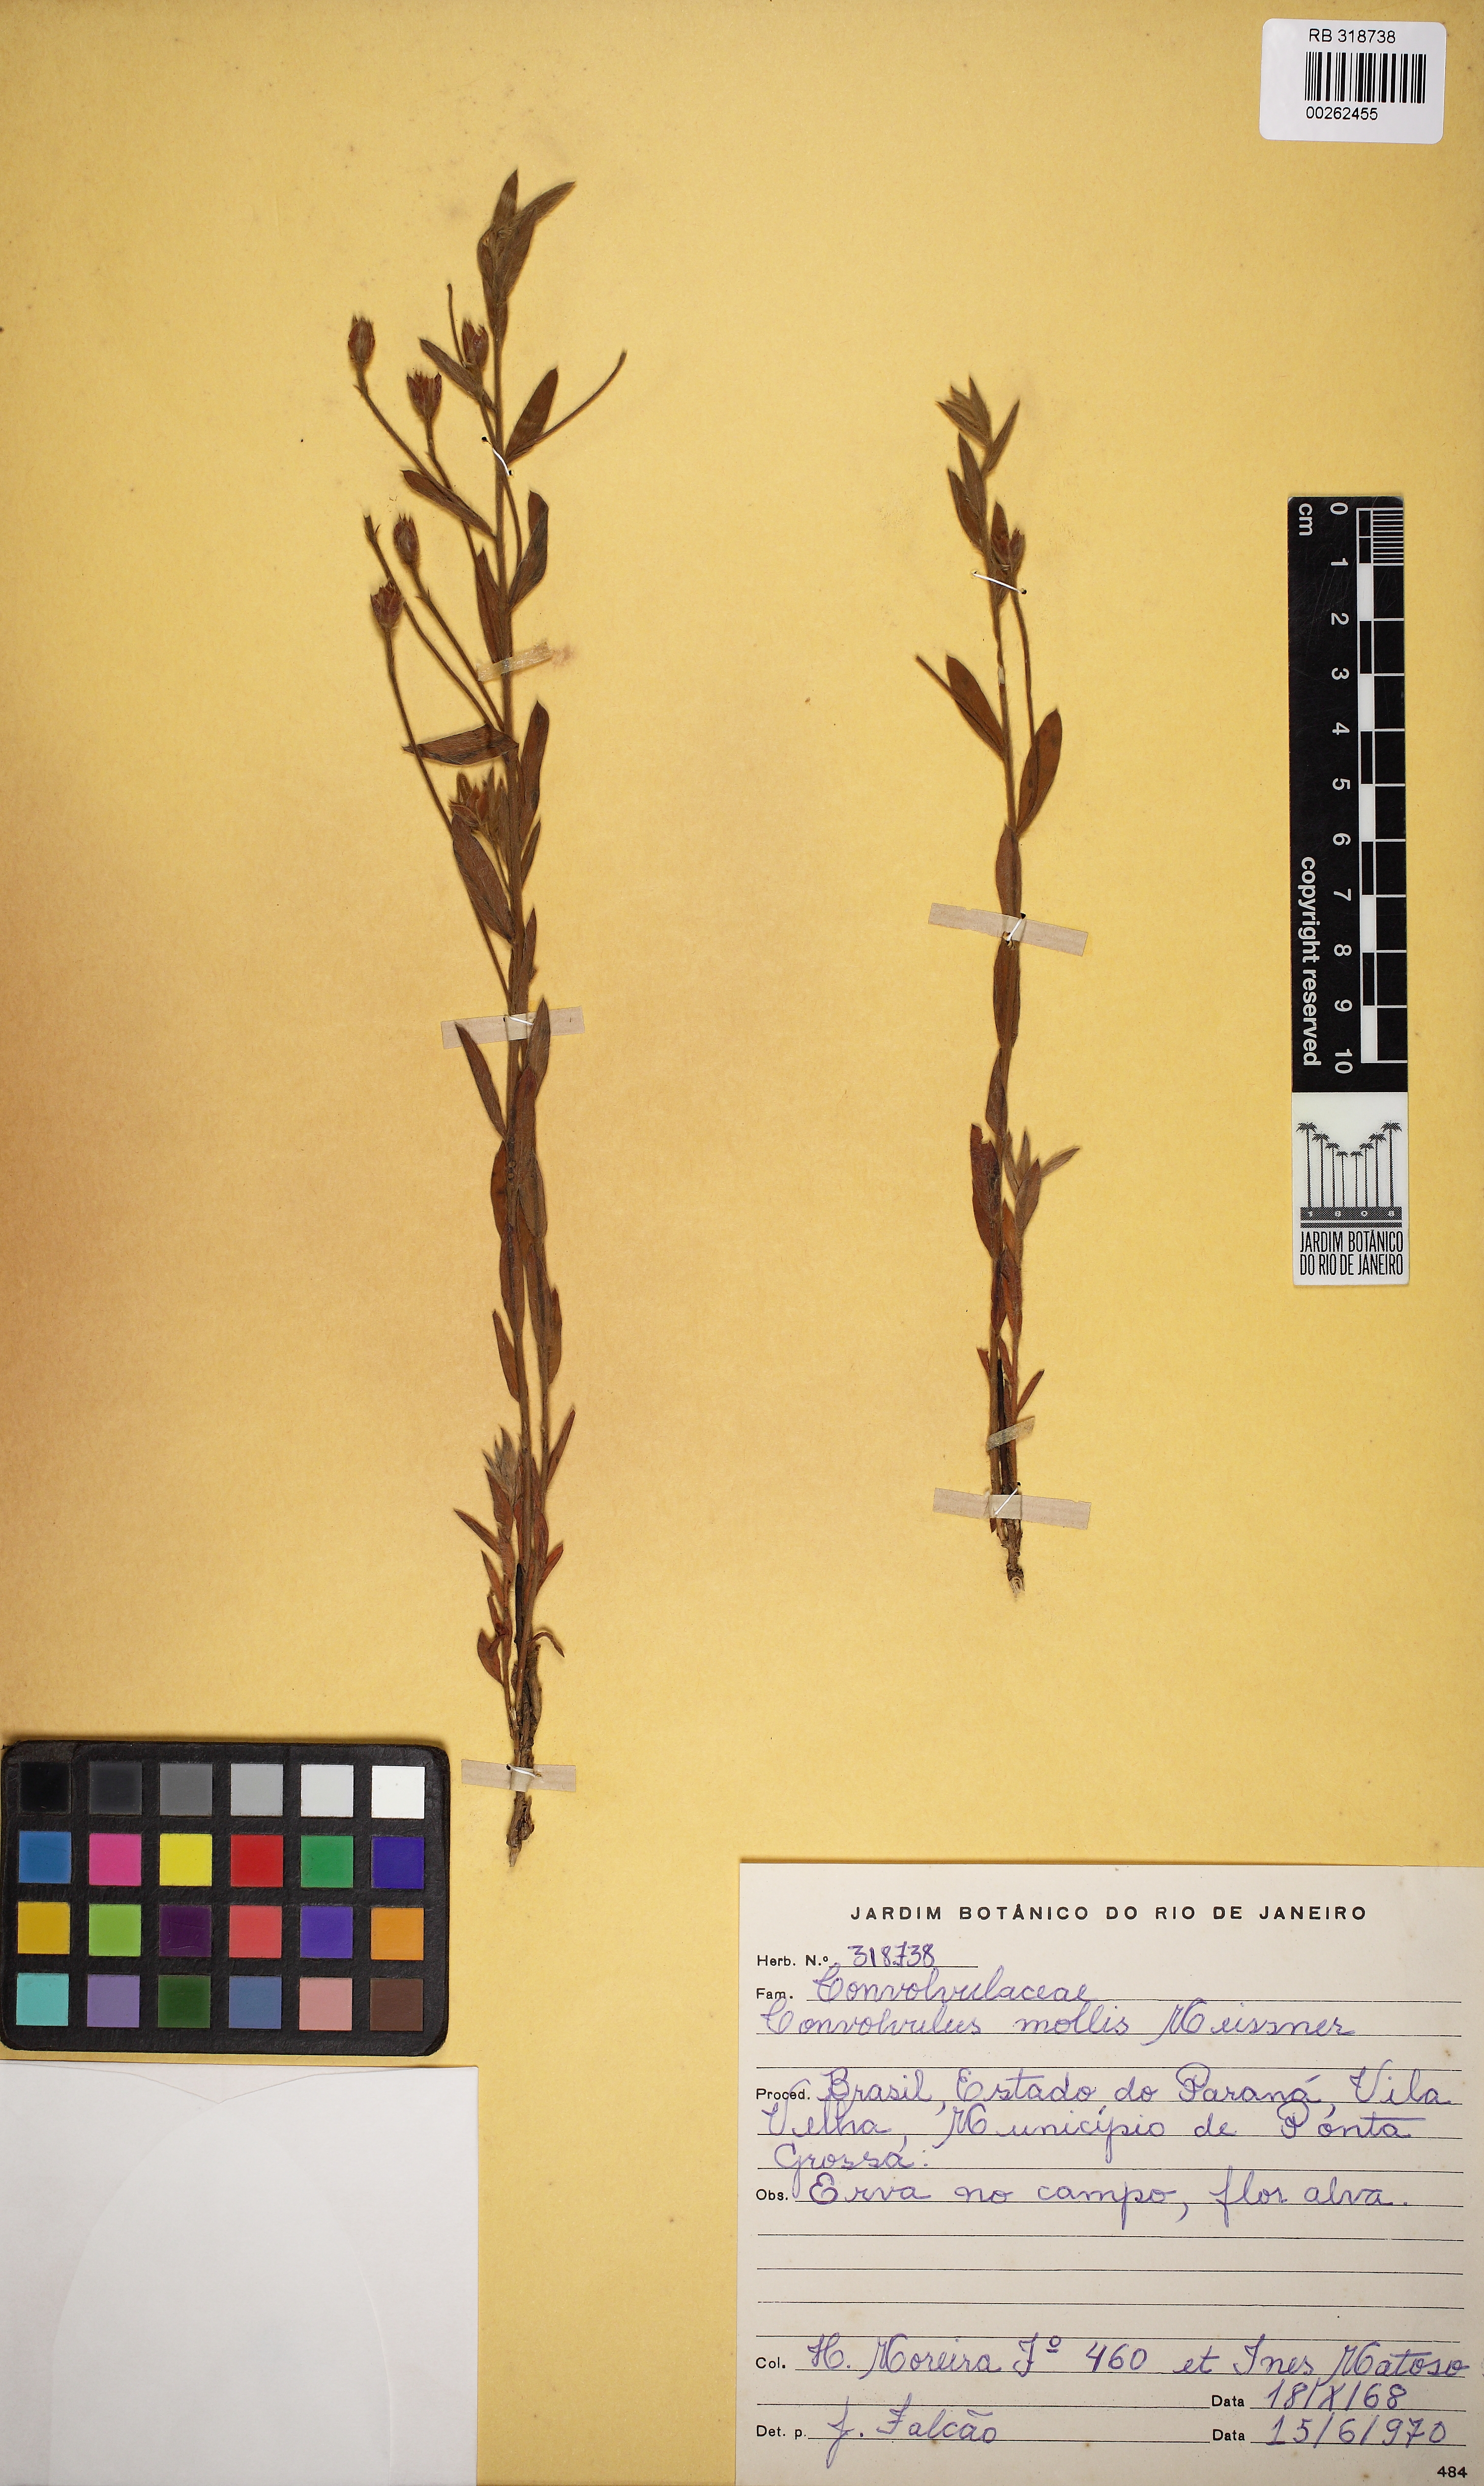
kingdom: Plantae
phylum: Tracheophyta
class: Magnoliopsida
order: Solanales
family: Convolvulaceae
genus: Convolvulus
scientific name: Convolvulus mollis
